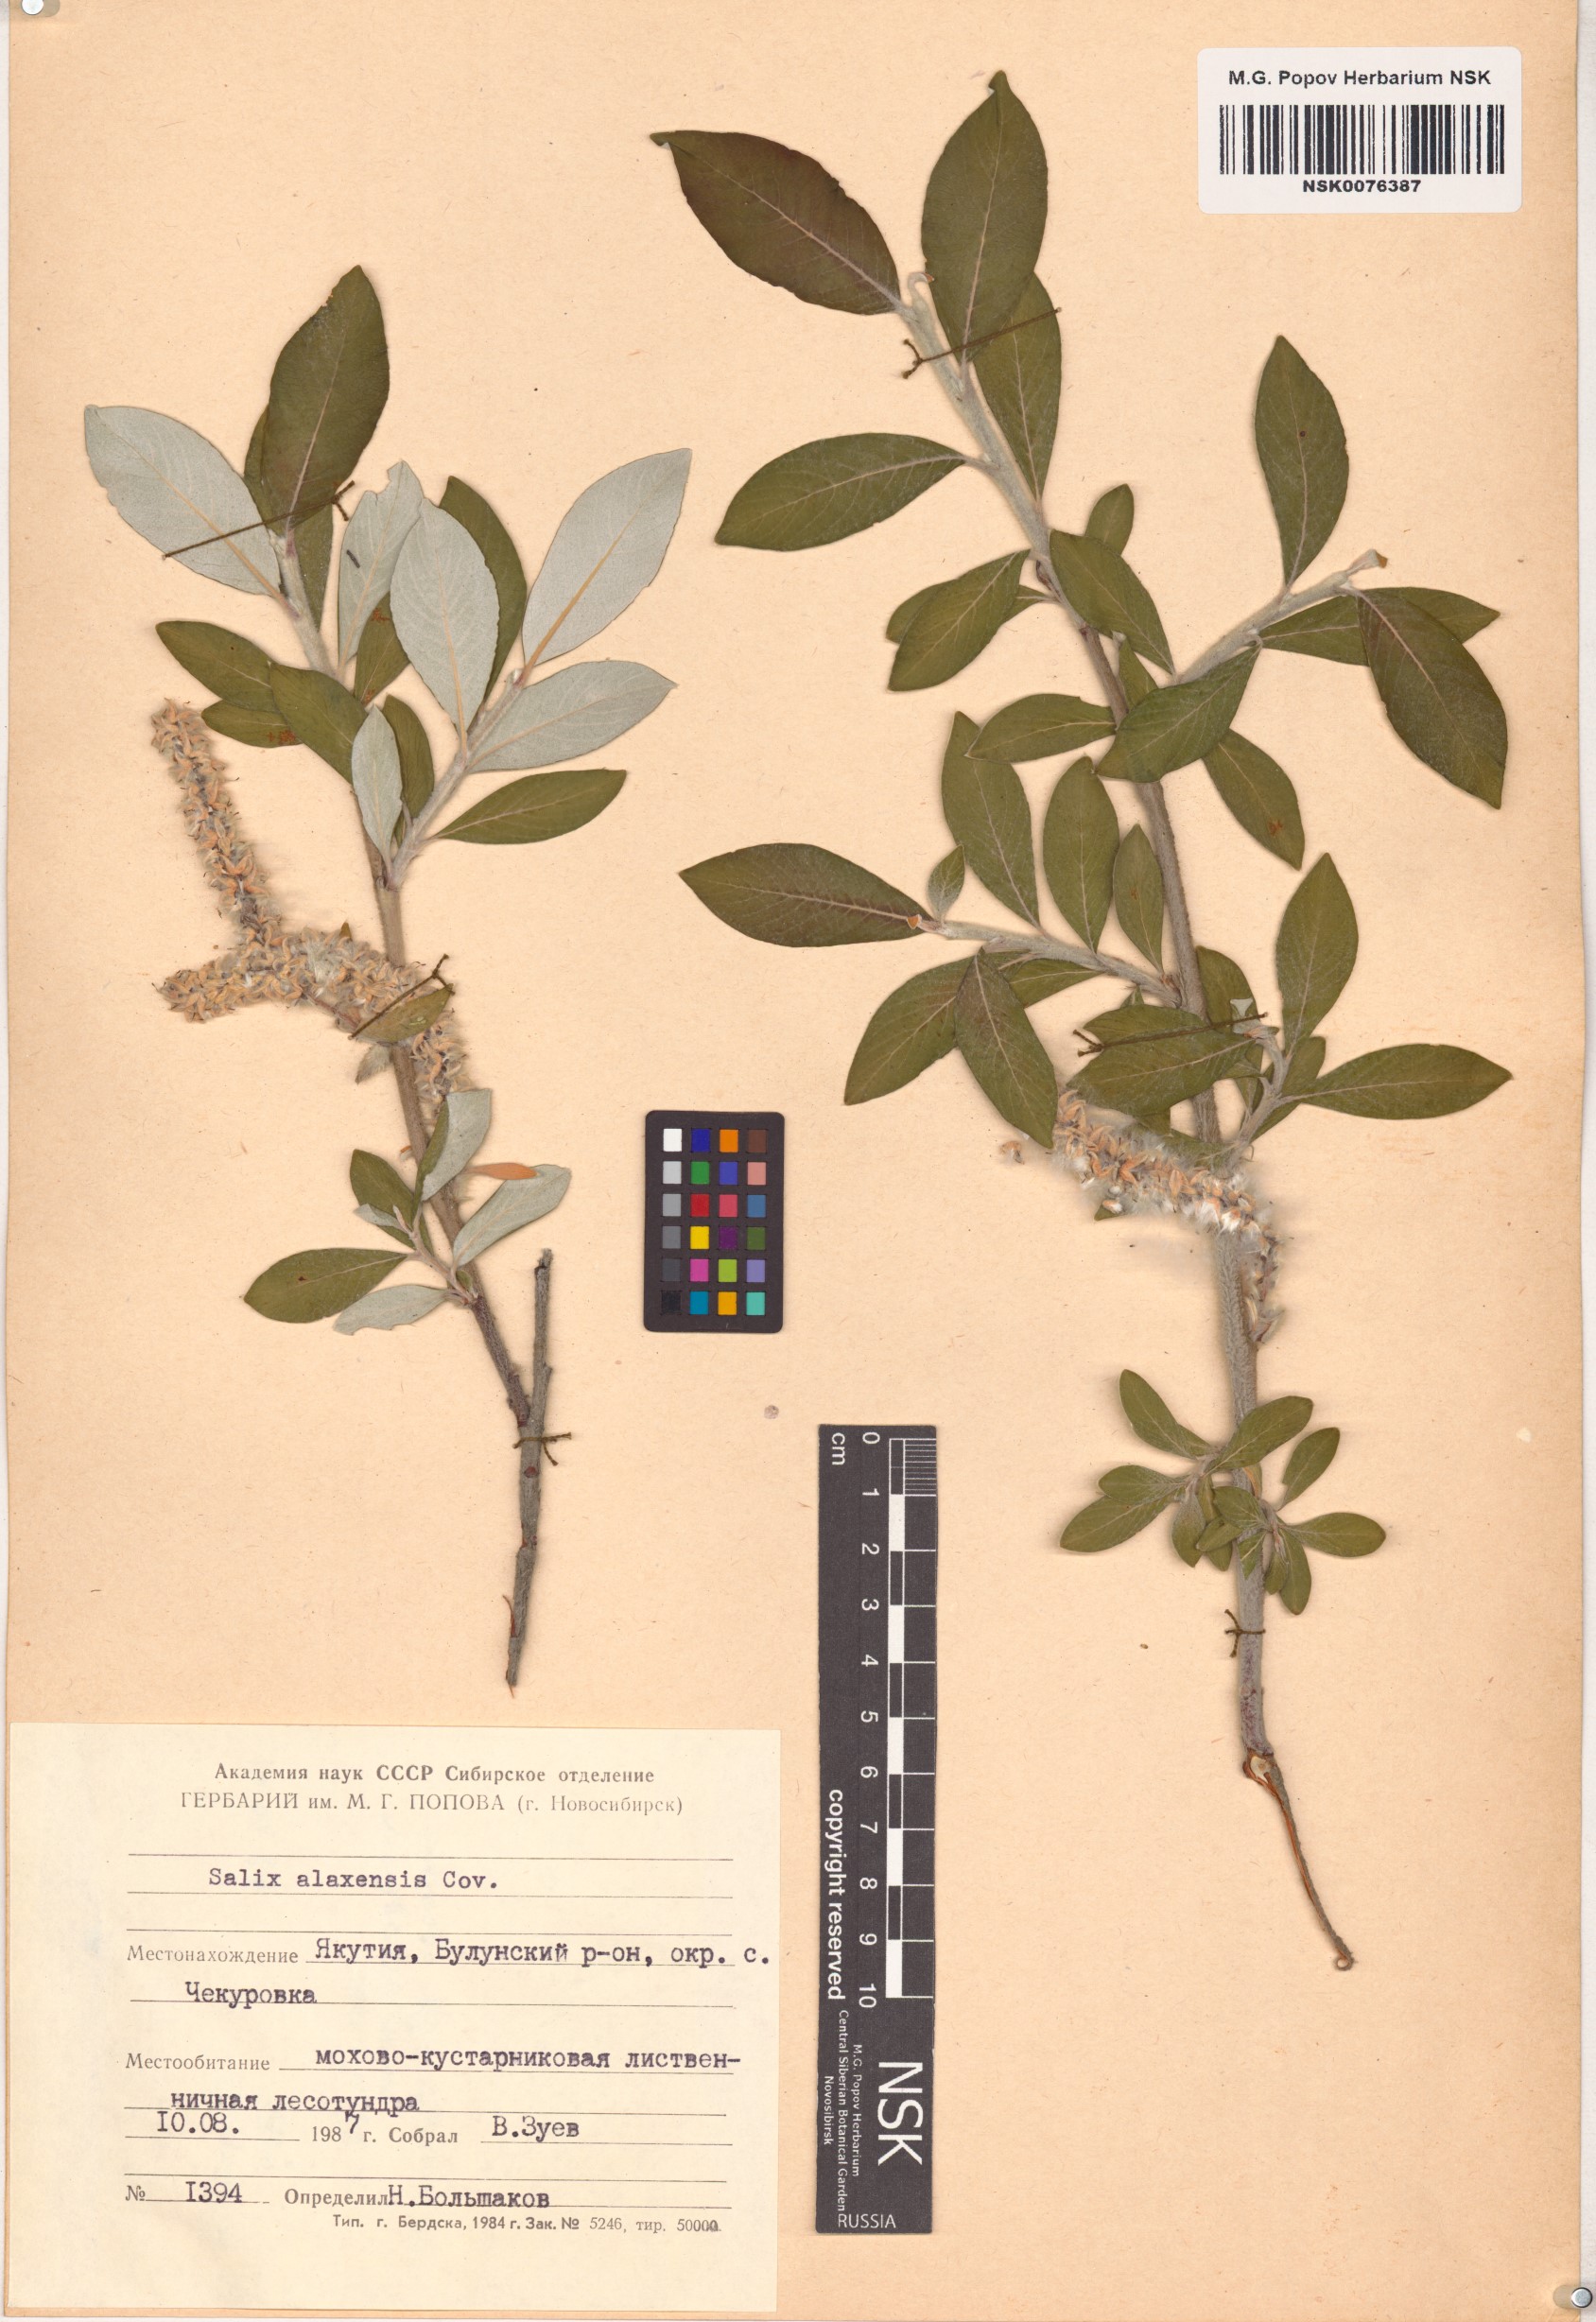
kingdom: Plantae
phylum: Tracheophyta
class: Magnoliopsida
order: Malpighiales
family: Salicaceae
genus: Salix
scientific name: Salix alaxensis
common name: Feltleaf willow
